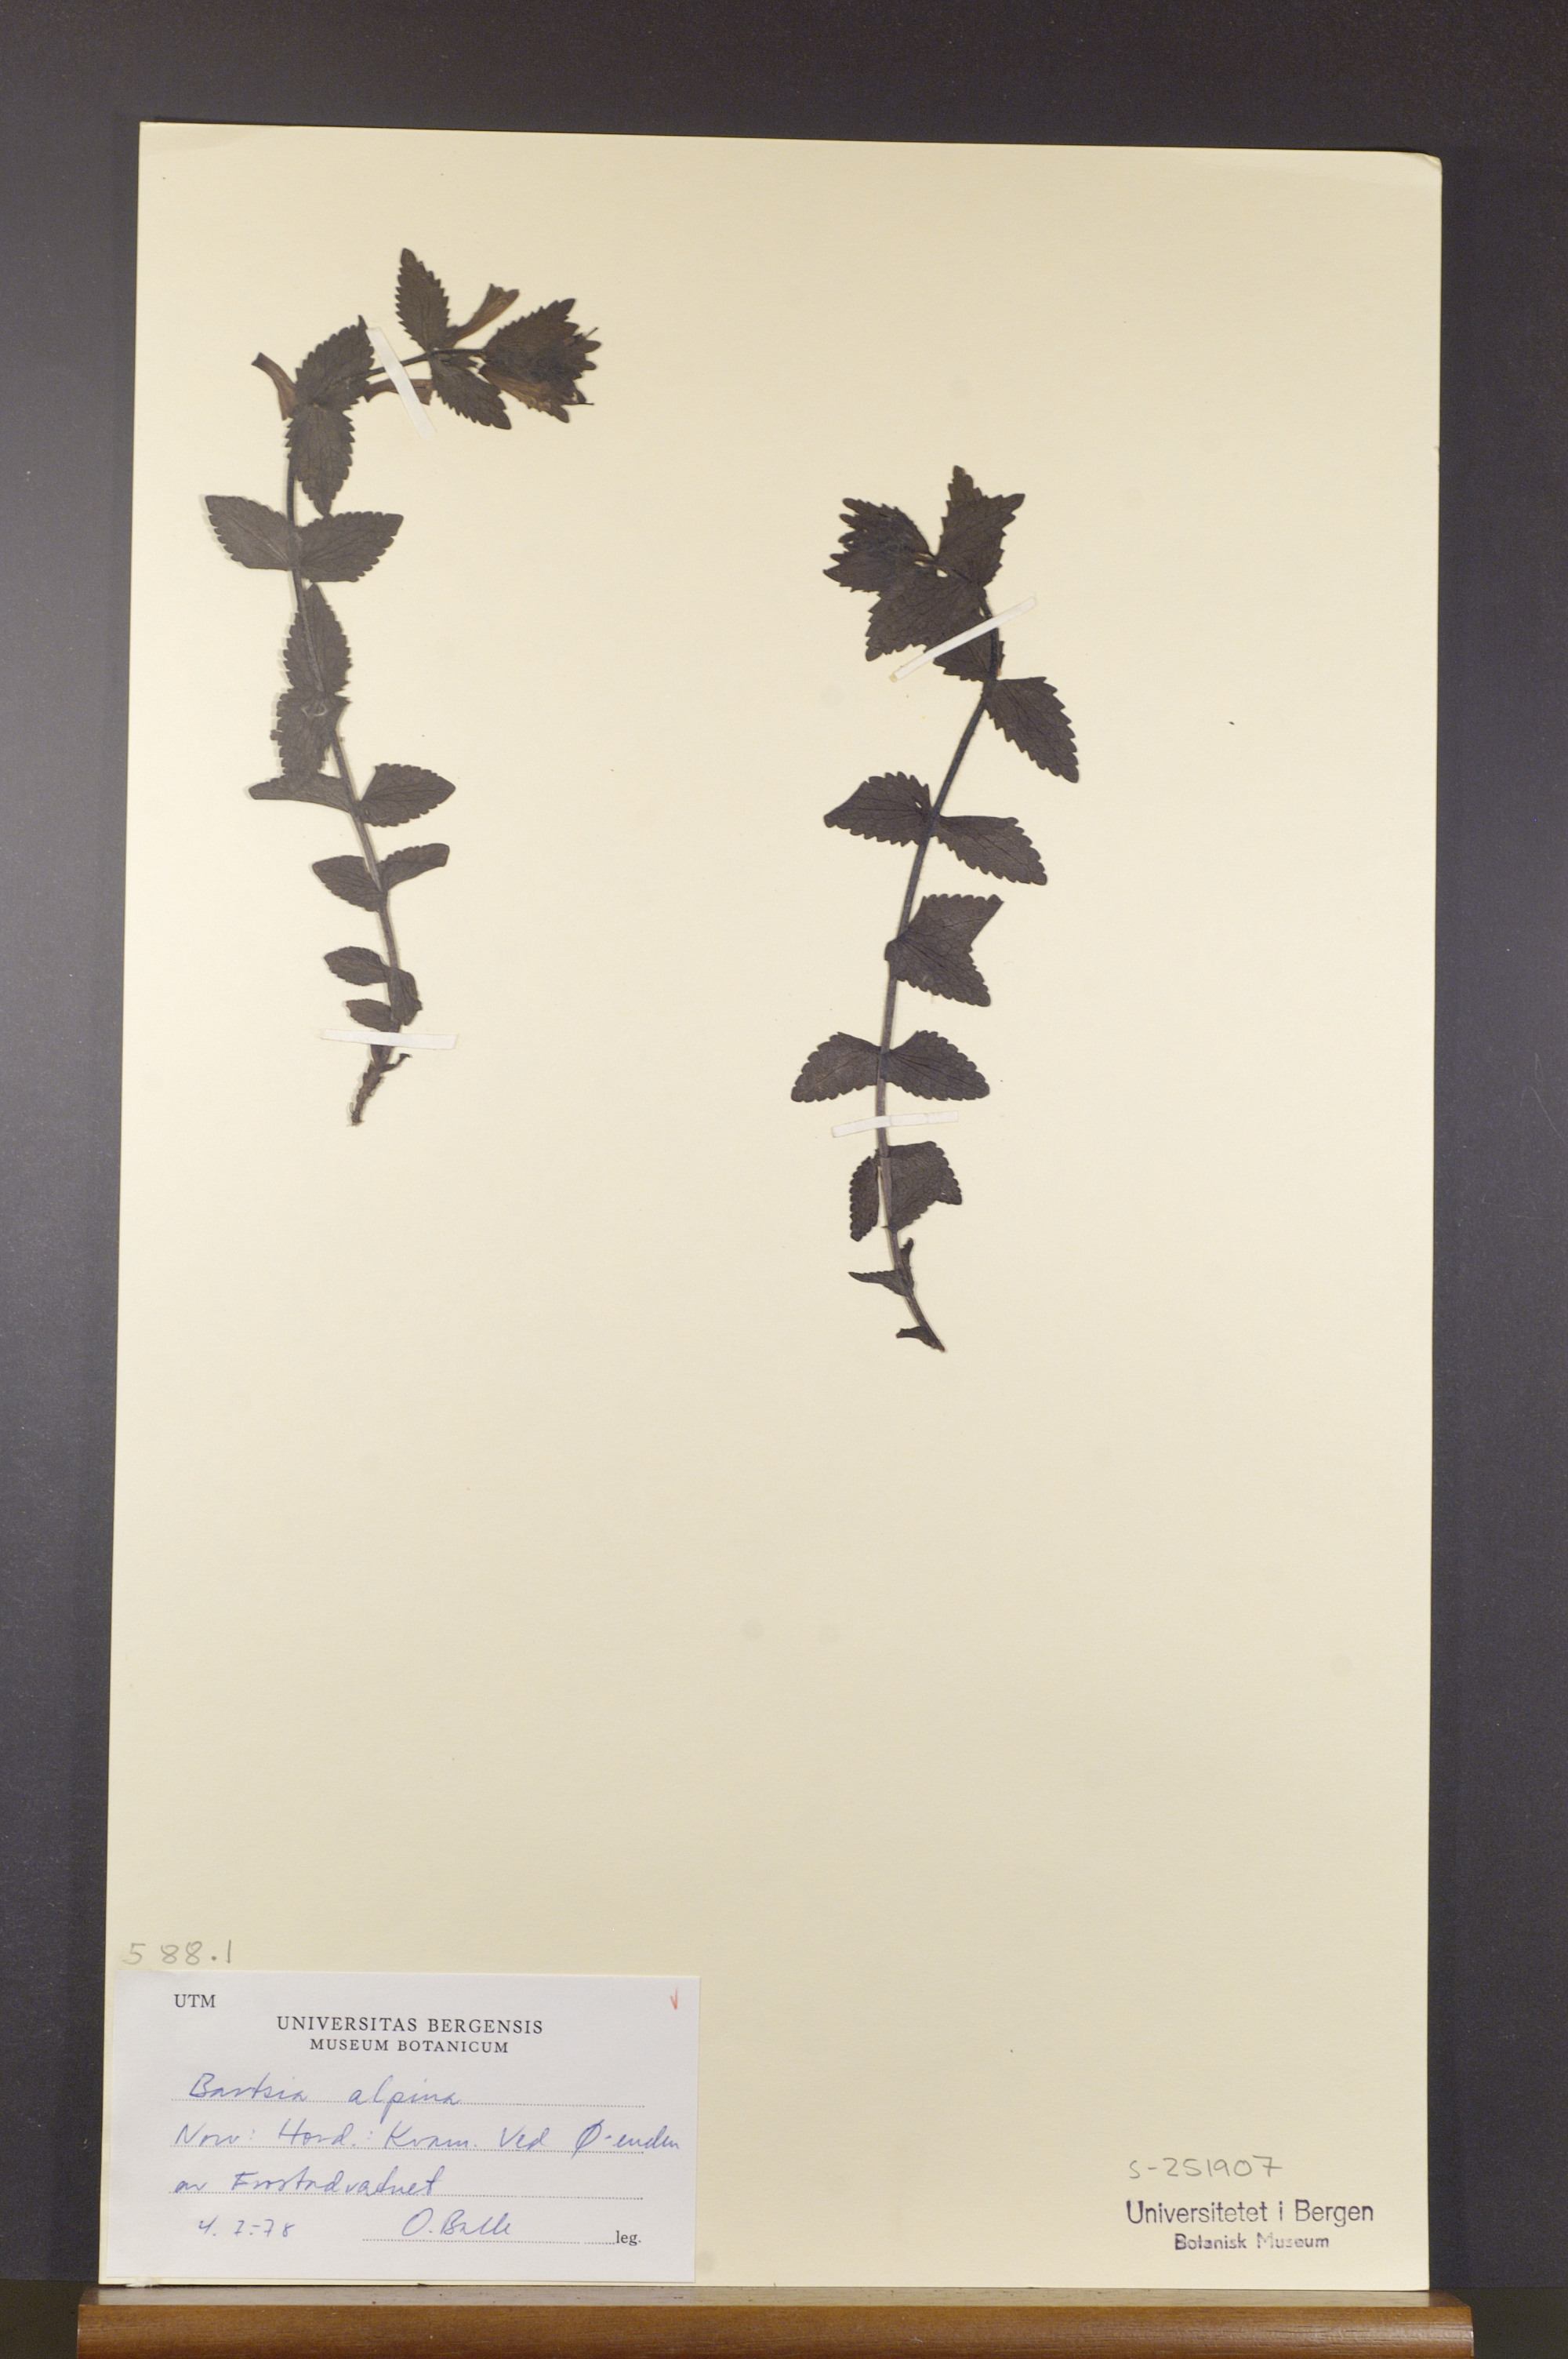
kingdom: Plantae
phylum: Tracheophyta
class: Magnoliopsida
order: Lamiales
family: Orobanchaceae
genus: Bartsia
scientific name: Bartsia alpina
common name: Alpine bartsia
